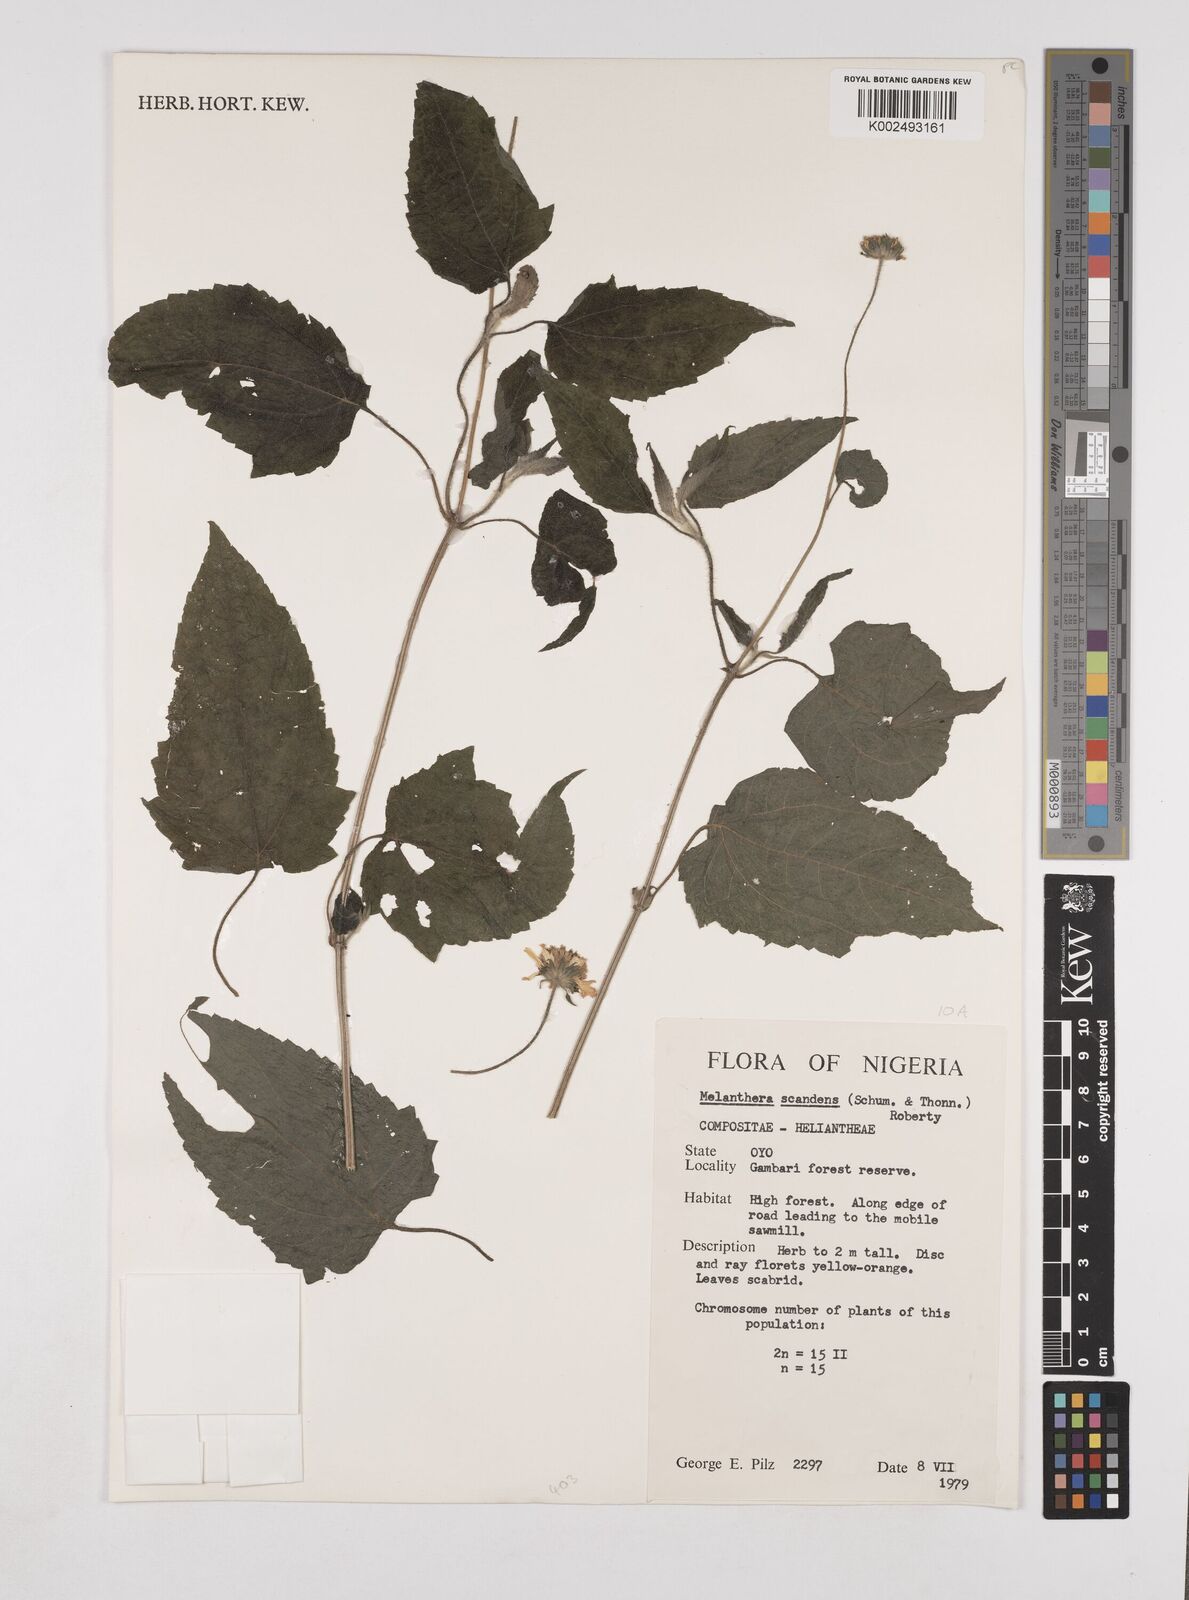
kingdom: Plantae
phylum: Tracheophyta
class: Magnoliopsida
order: Asterales
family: Asteraceae
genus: Lipotriche
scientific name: Lipotriche scandens
